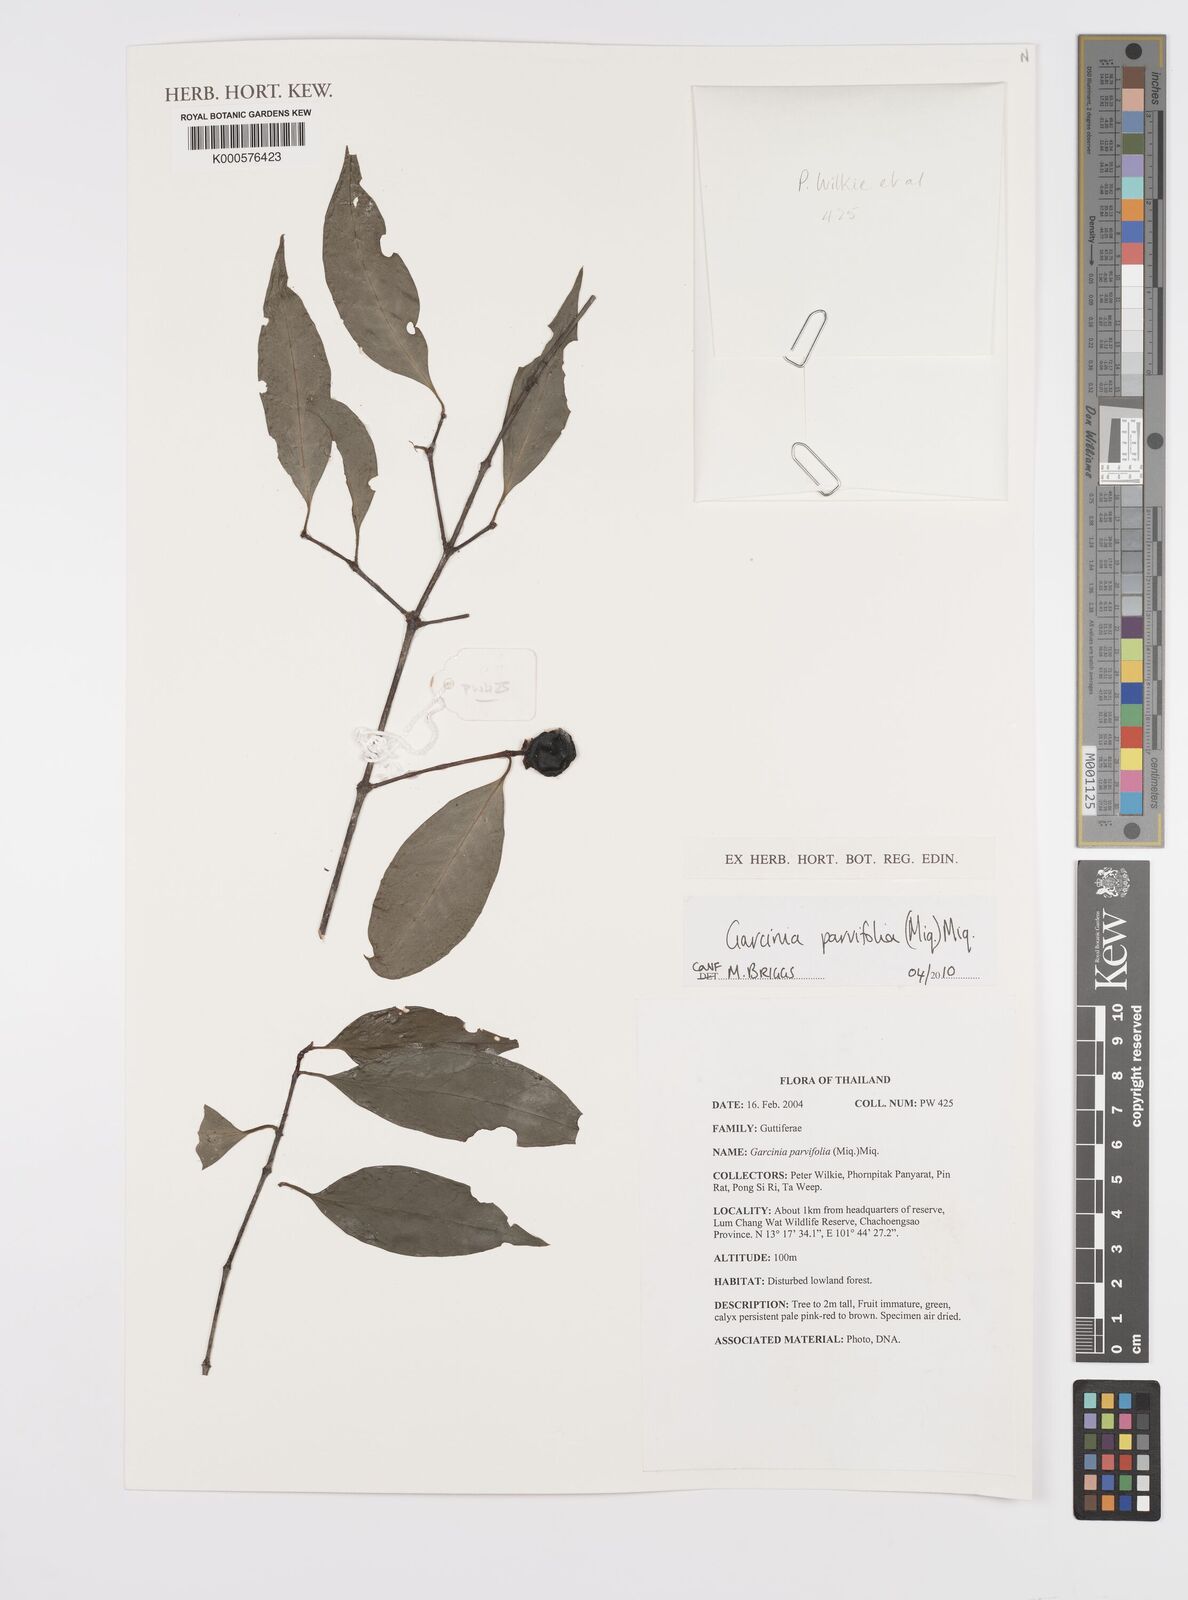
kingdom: Plantae
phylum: Tracheophyta
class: Magnoliopsida
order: Malpighiales
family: Clusiaceae
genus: Garcinia
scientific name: Garcinia parvifolia
